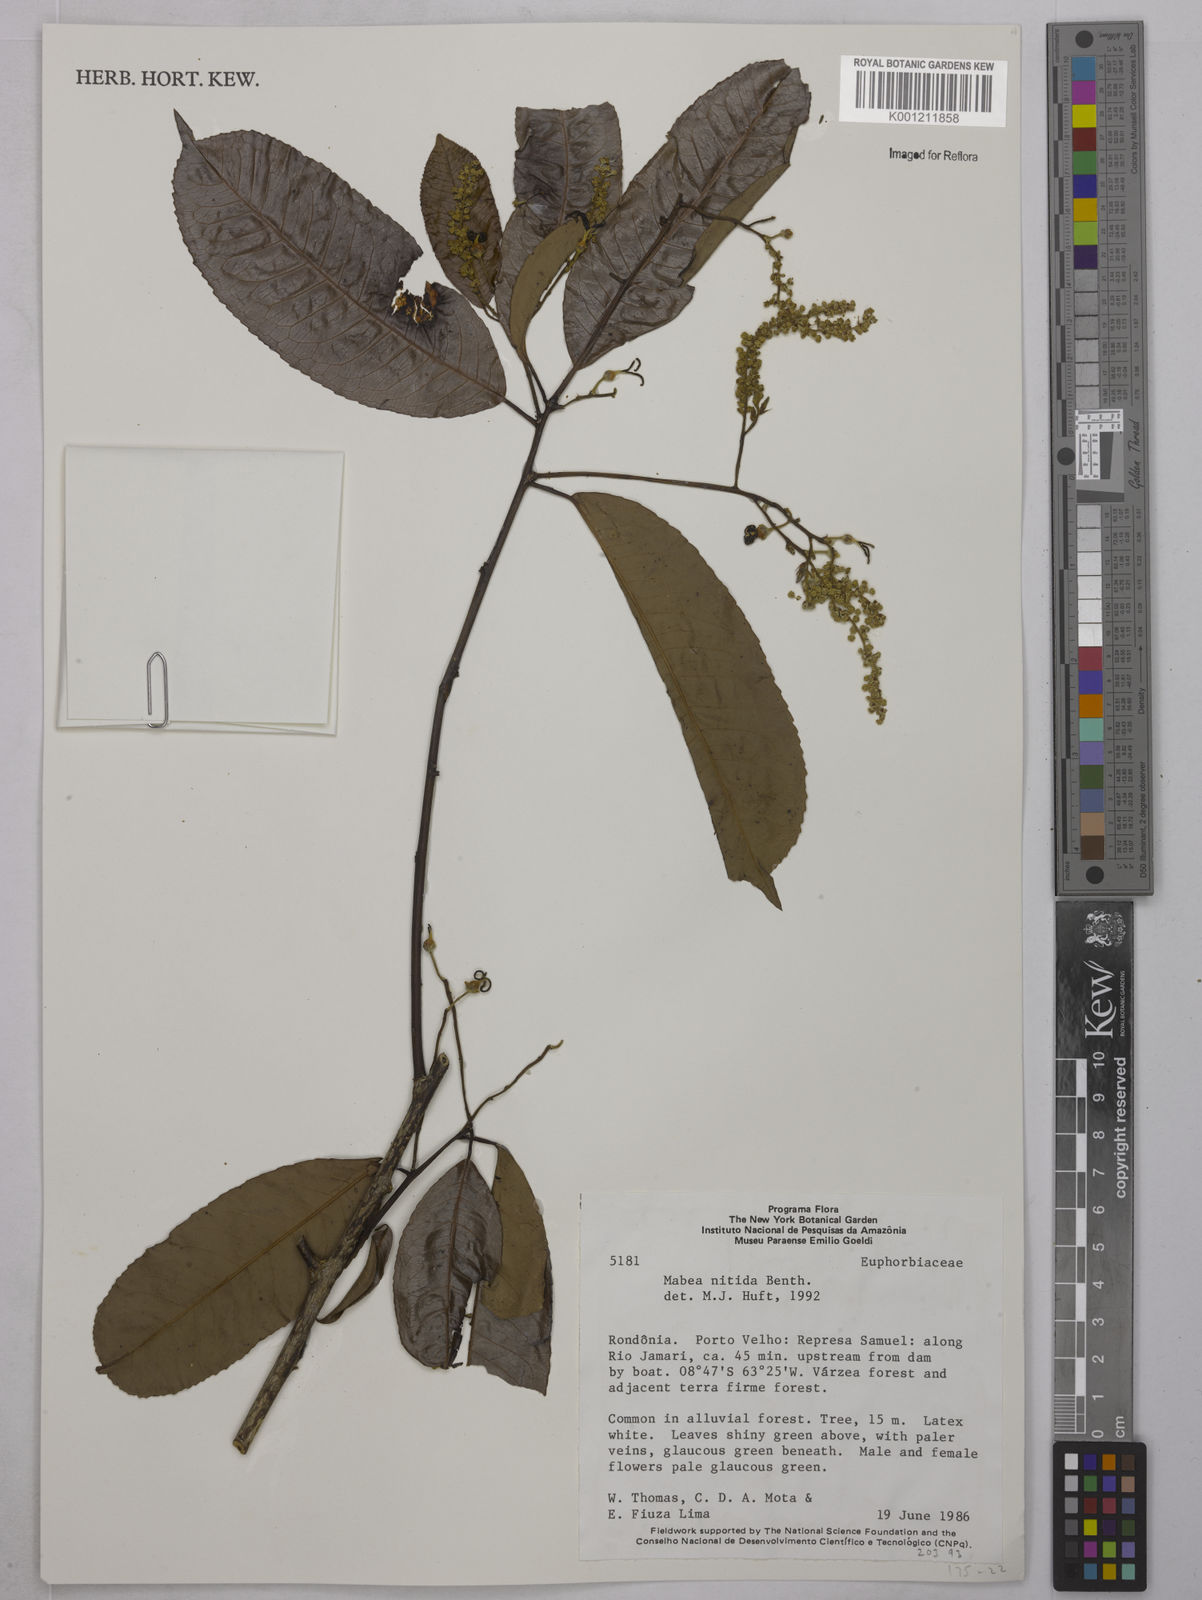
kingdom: Plantae
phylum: Tracheophyta
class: Magnoliopsida
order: Malpighiales
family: Euphorbiaceae
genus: Mabea
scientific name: Mabea nitida
